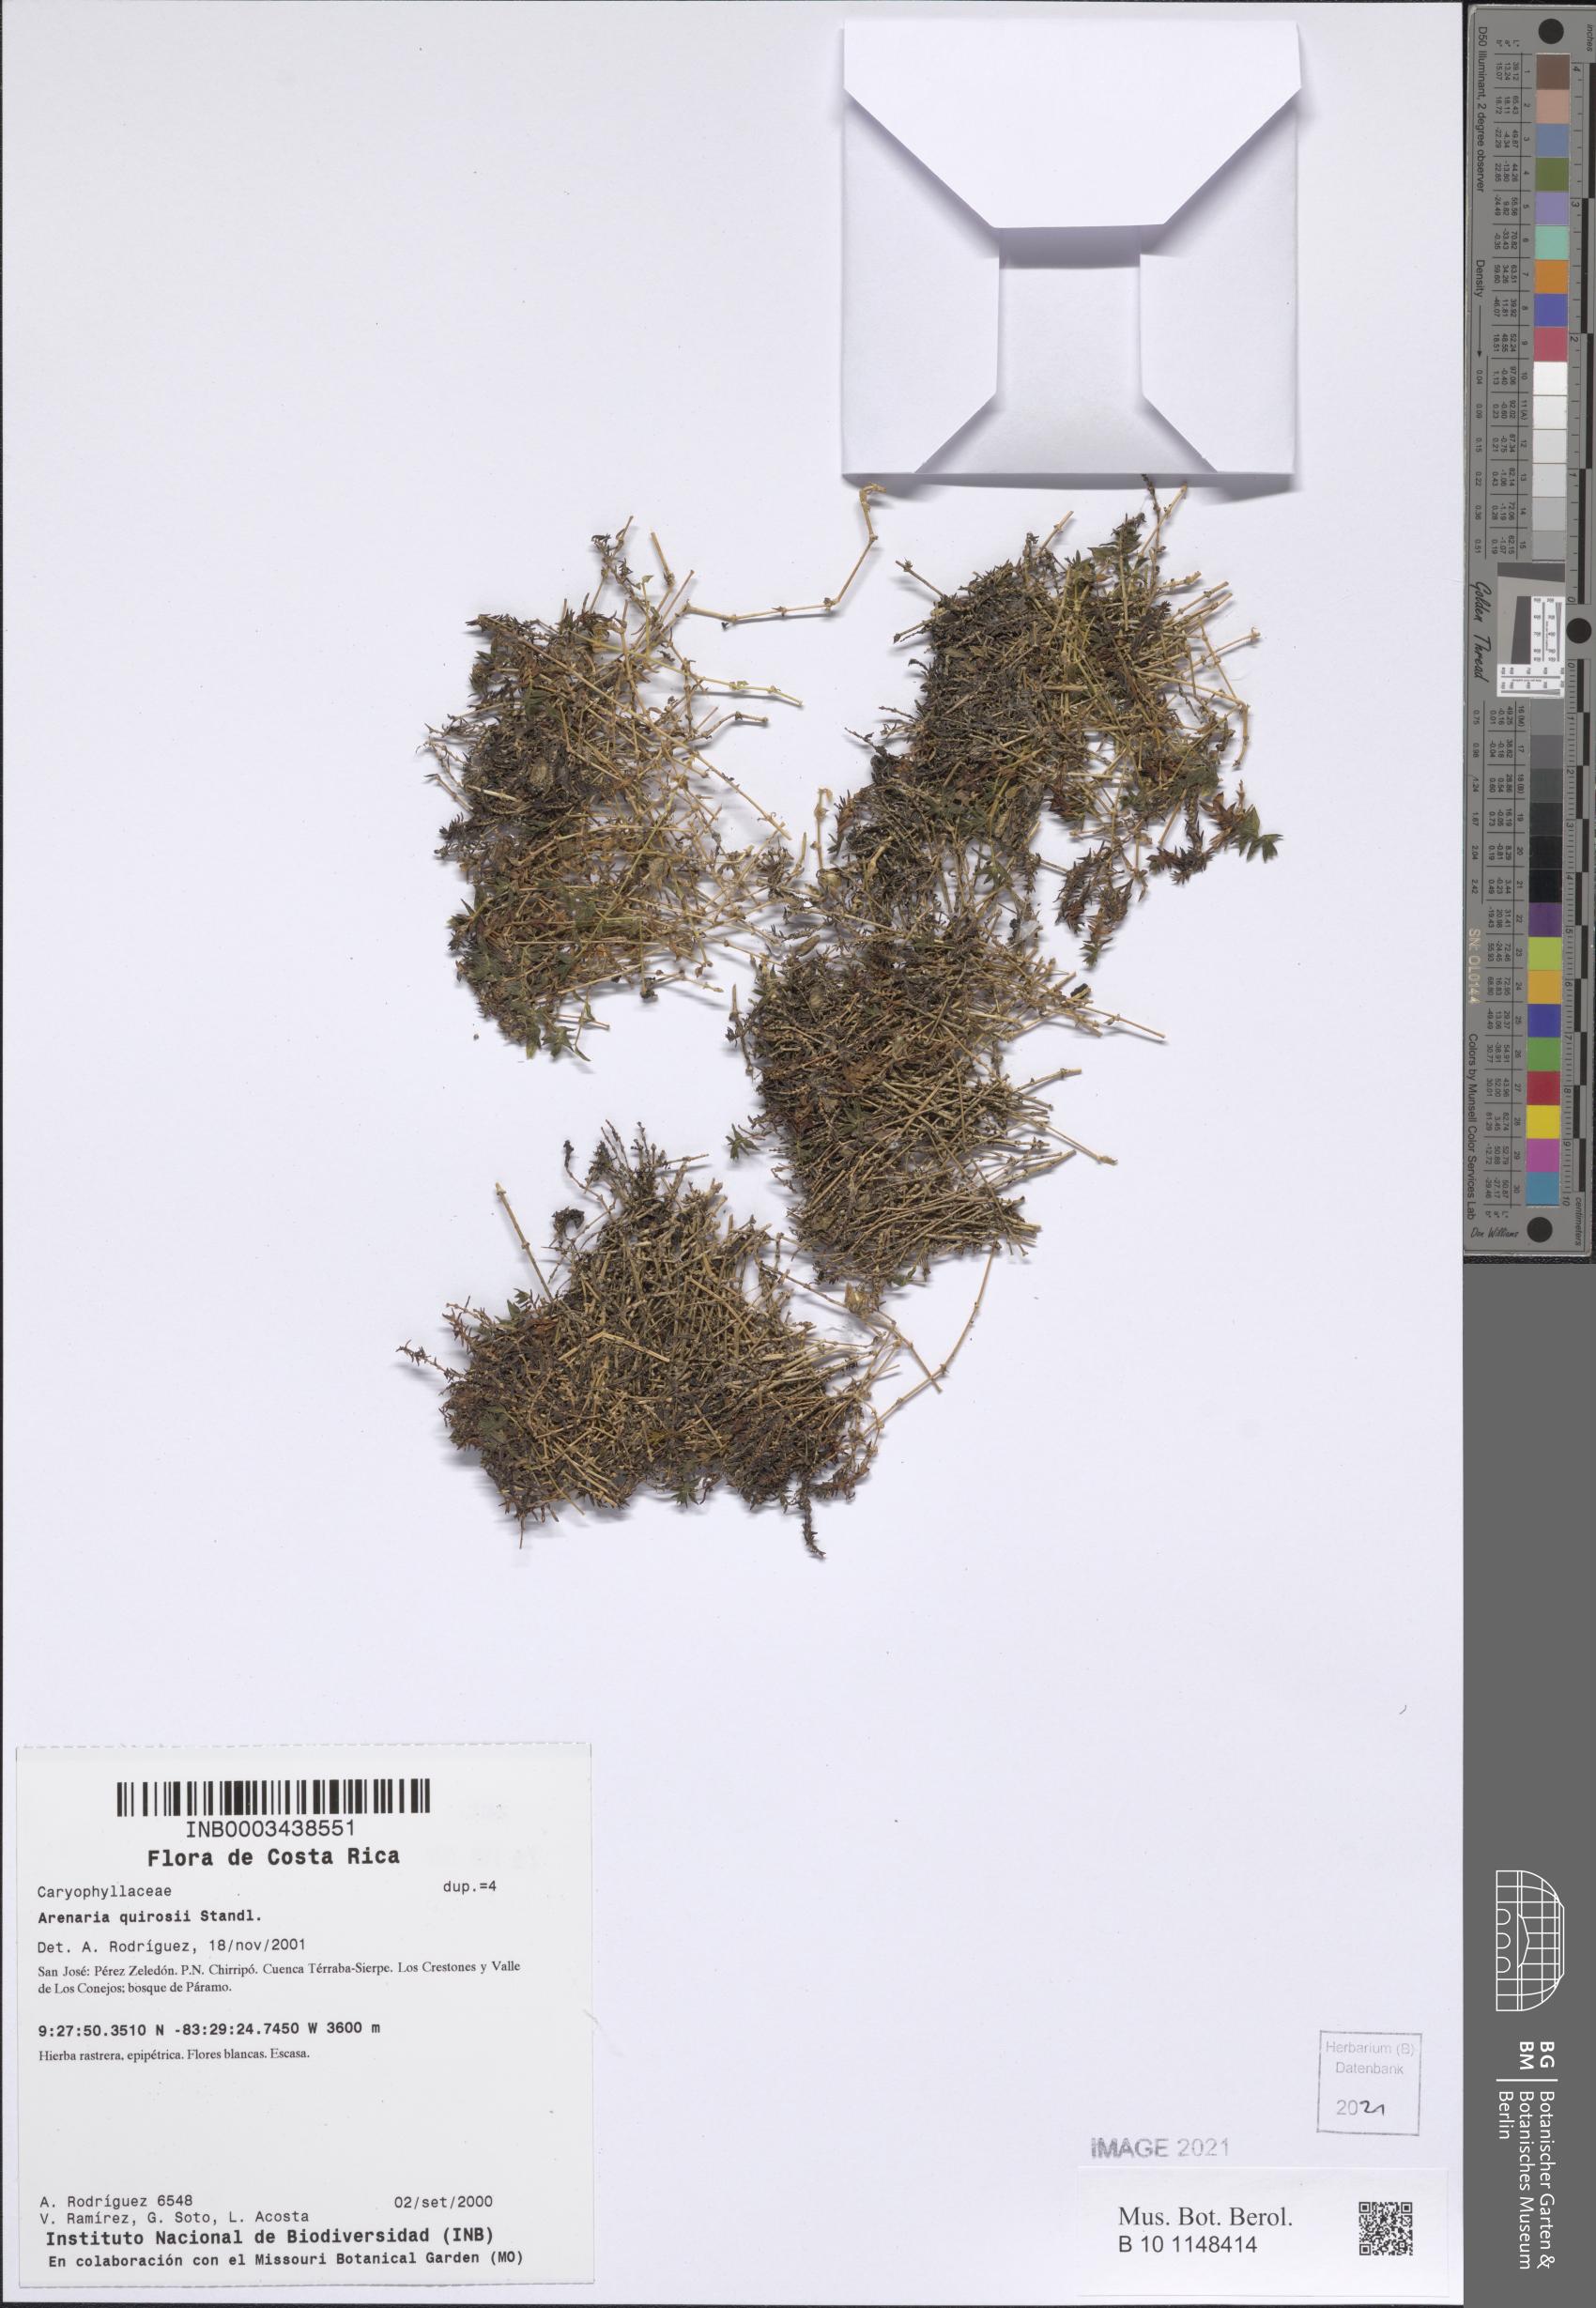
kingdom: Plantae
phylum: Tracheophyta
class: Magnoliopsida
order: Caryophyllales
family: Caryophyllaceae
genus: Stellaria
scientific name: Stellaria nubigena
